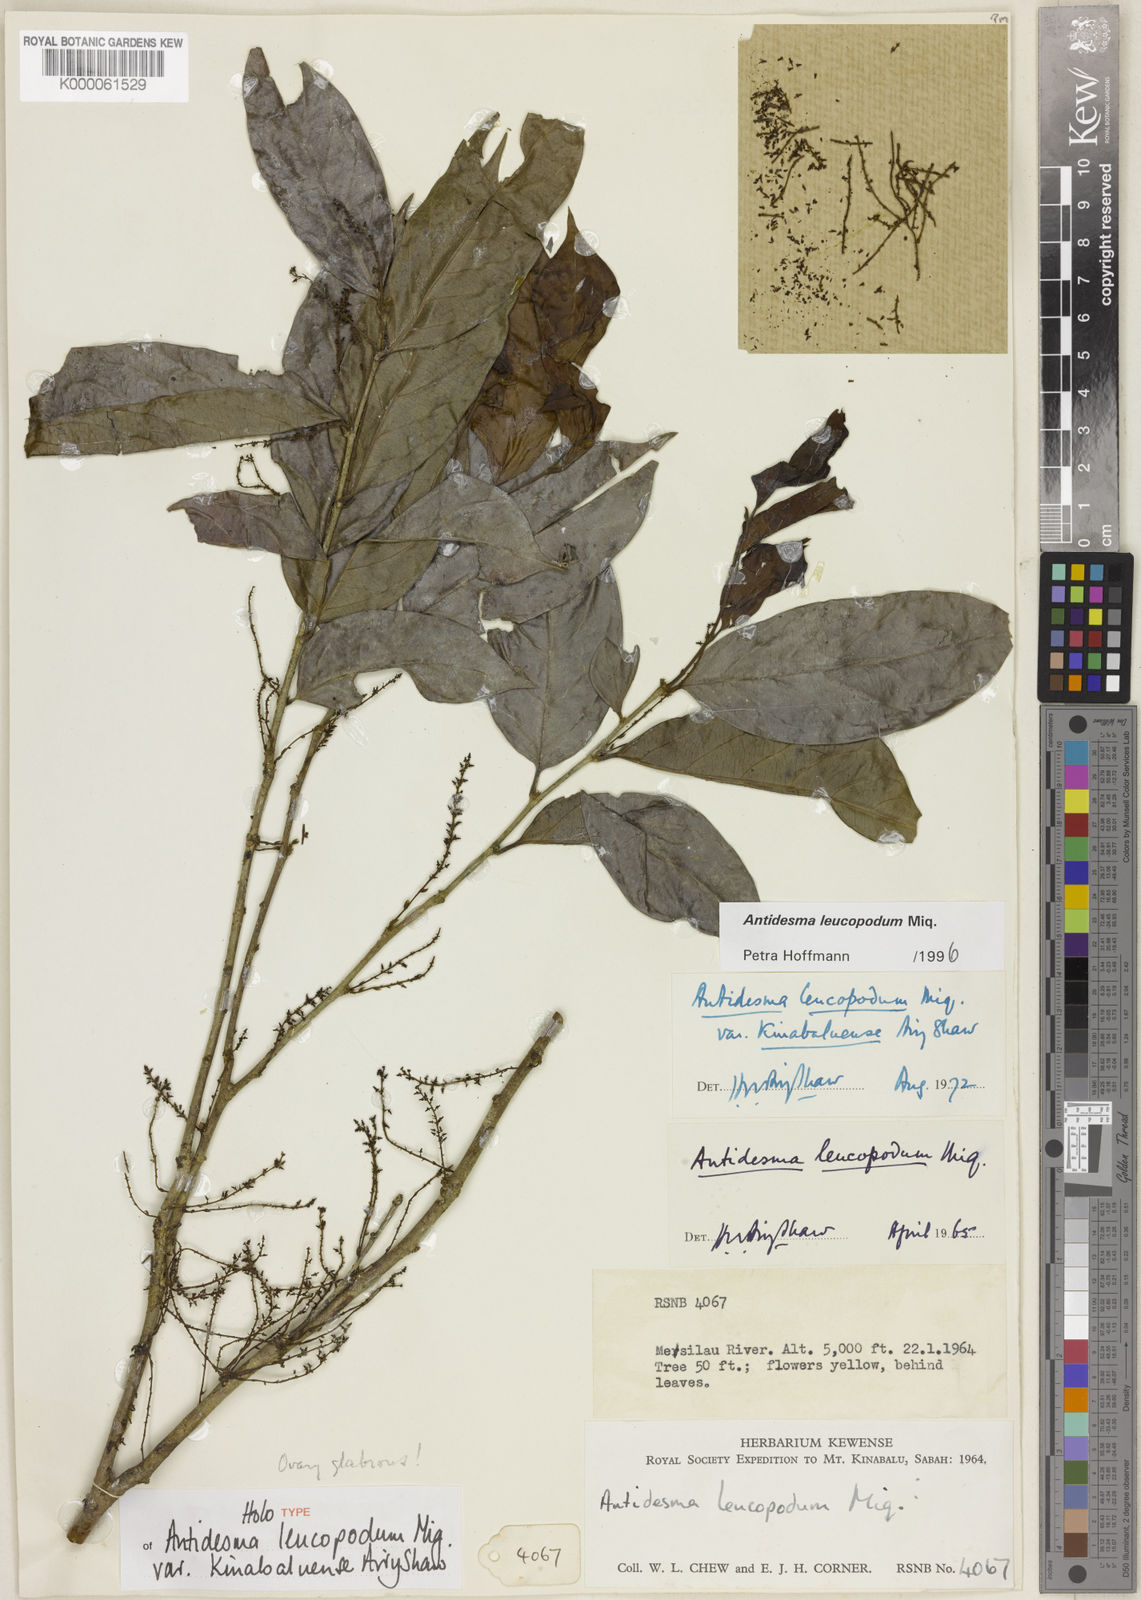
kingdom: Plantae
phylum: Tracheophyta
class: Magnoliopsida
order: Malpighiales
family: Phyllanthaceae
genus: Antidesma
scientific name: Antidesma leucopodum
